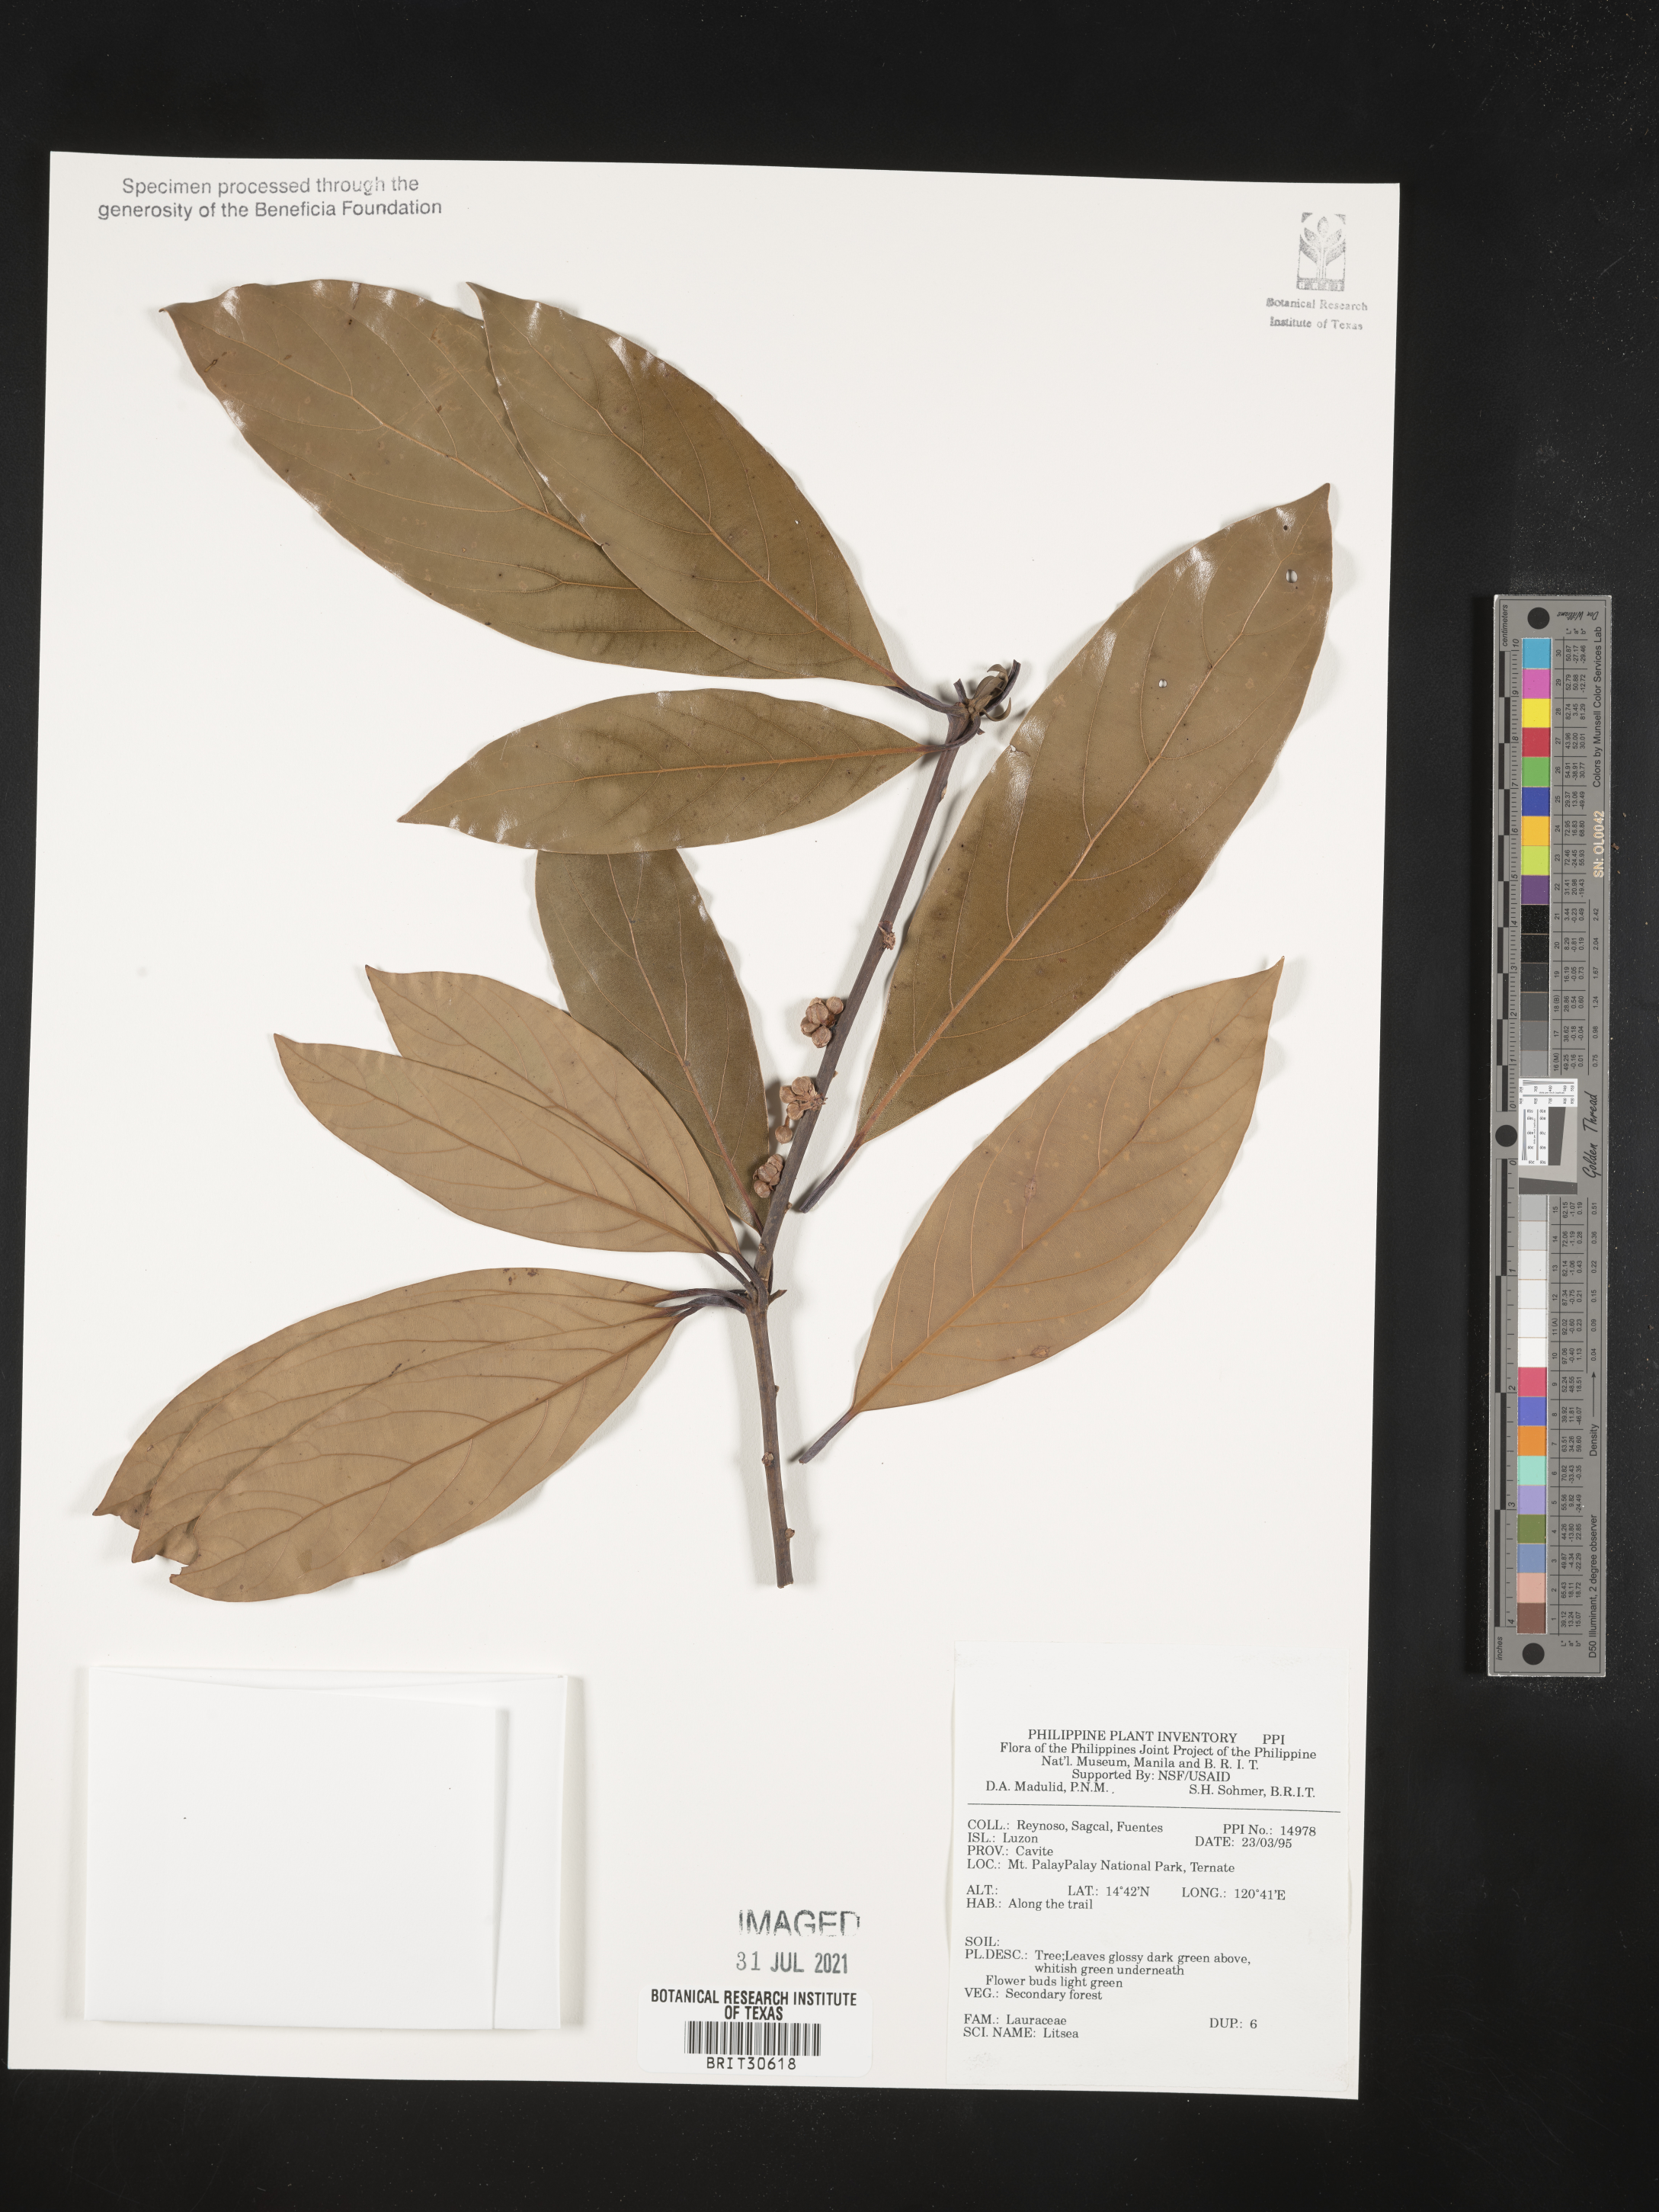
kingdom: Plantae
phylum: Tracheophyta
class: Magnoliopsida
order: Laurales
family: Lauraceae
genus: Litsea
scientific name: Litsea
